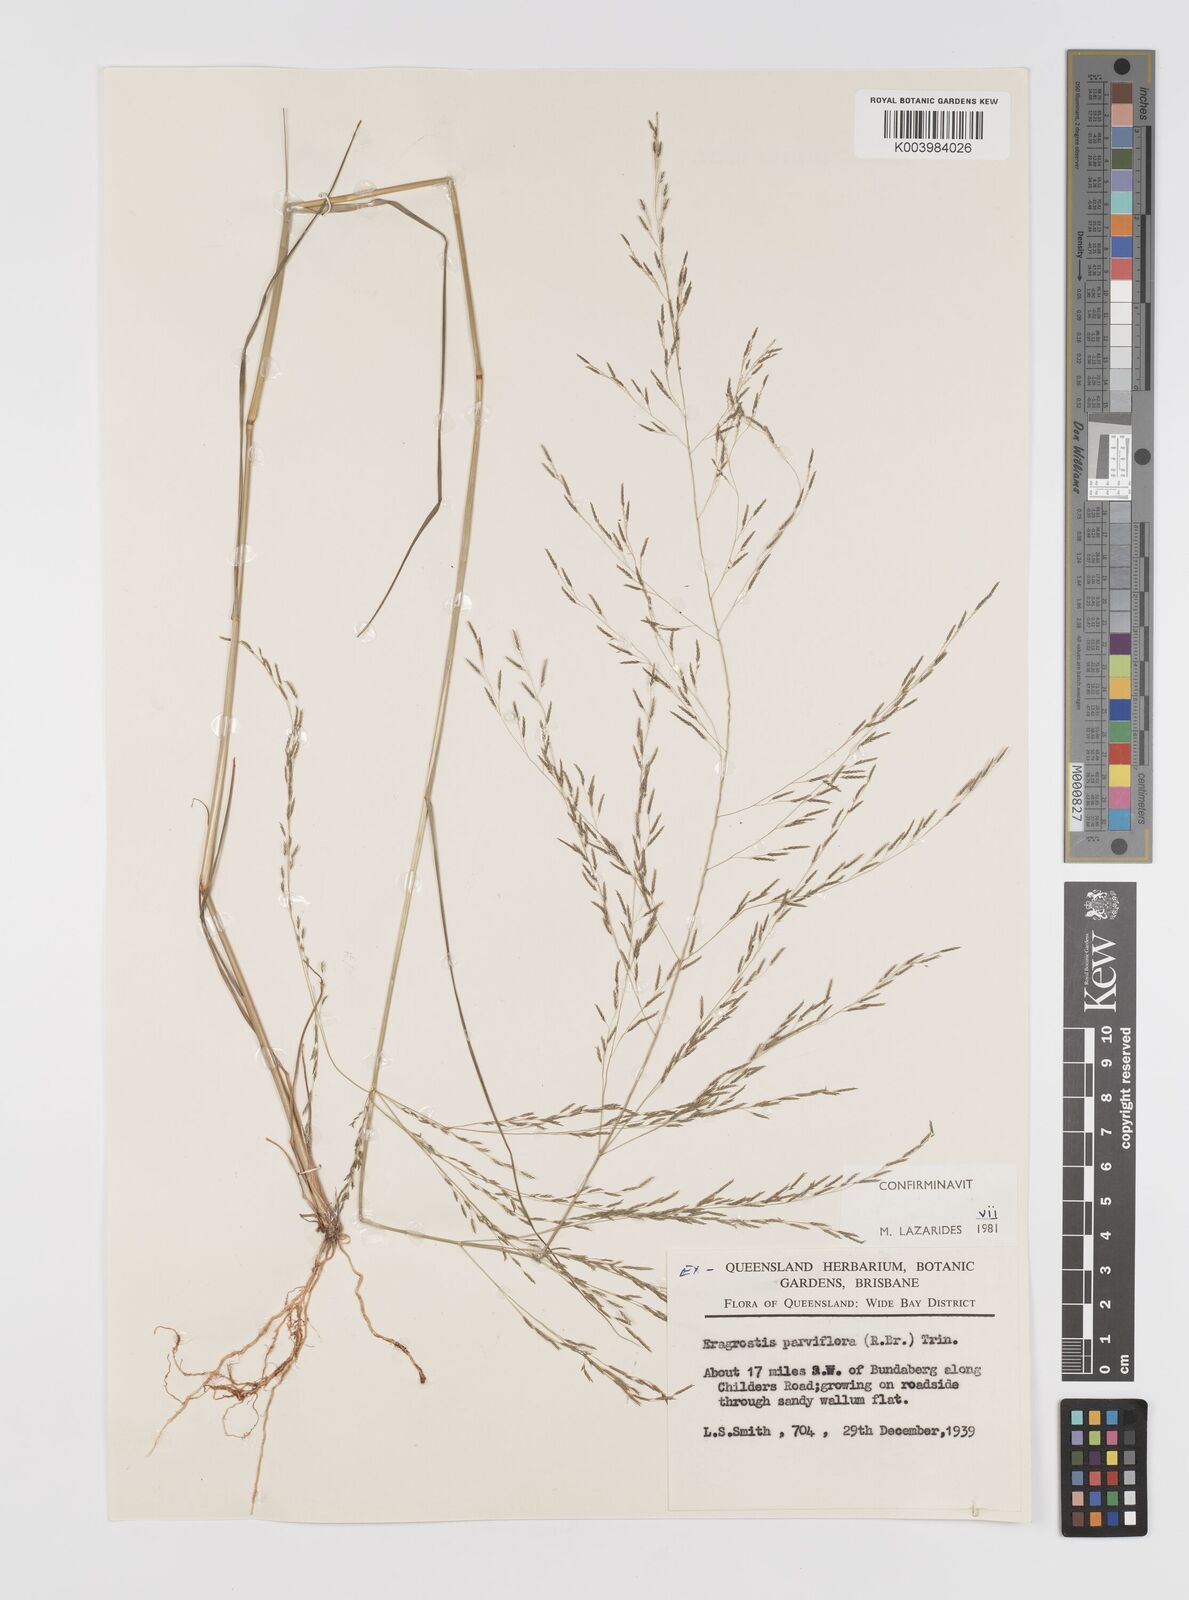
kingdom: Plantae
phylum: Tracheophyta
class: Liliopsida
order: Poales
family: Poaceae
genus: Eragrostis
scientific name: Eragrostis parviflora
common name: Weeping love-grass
